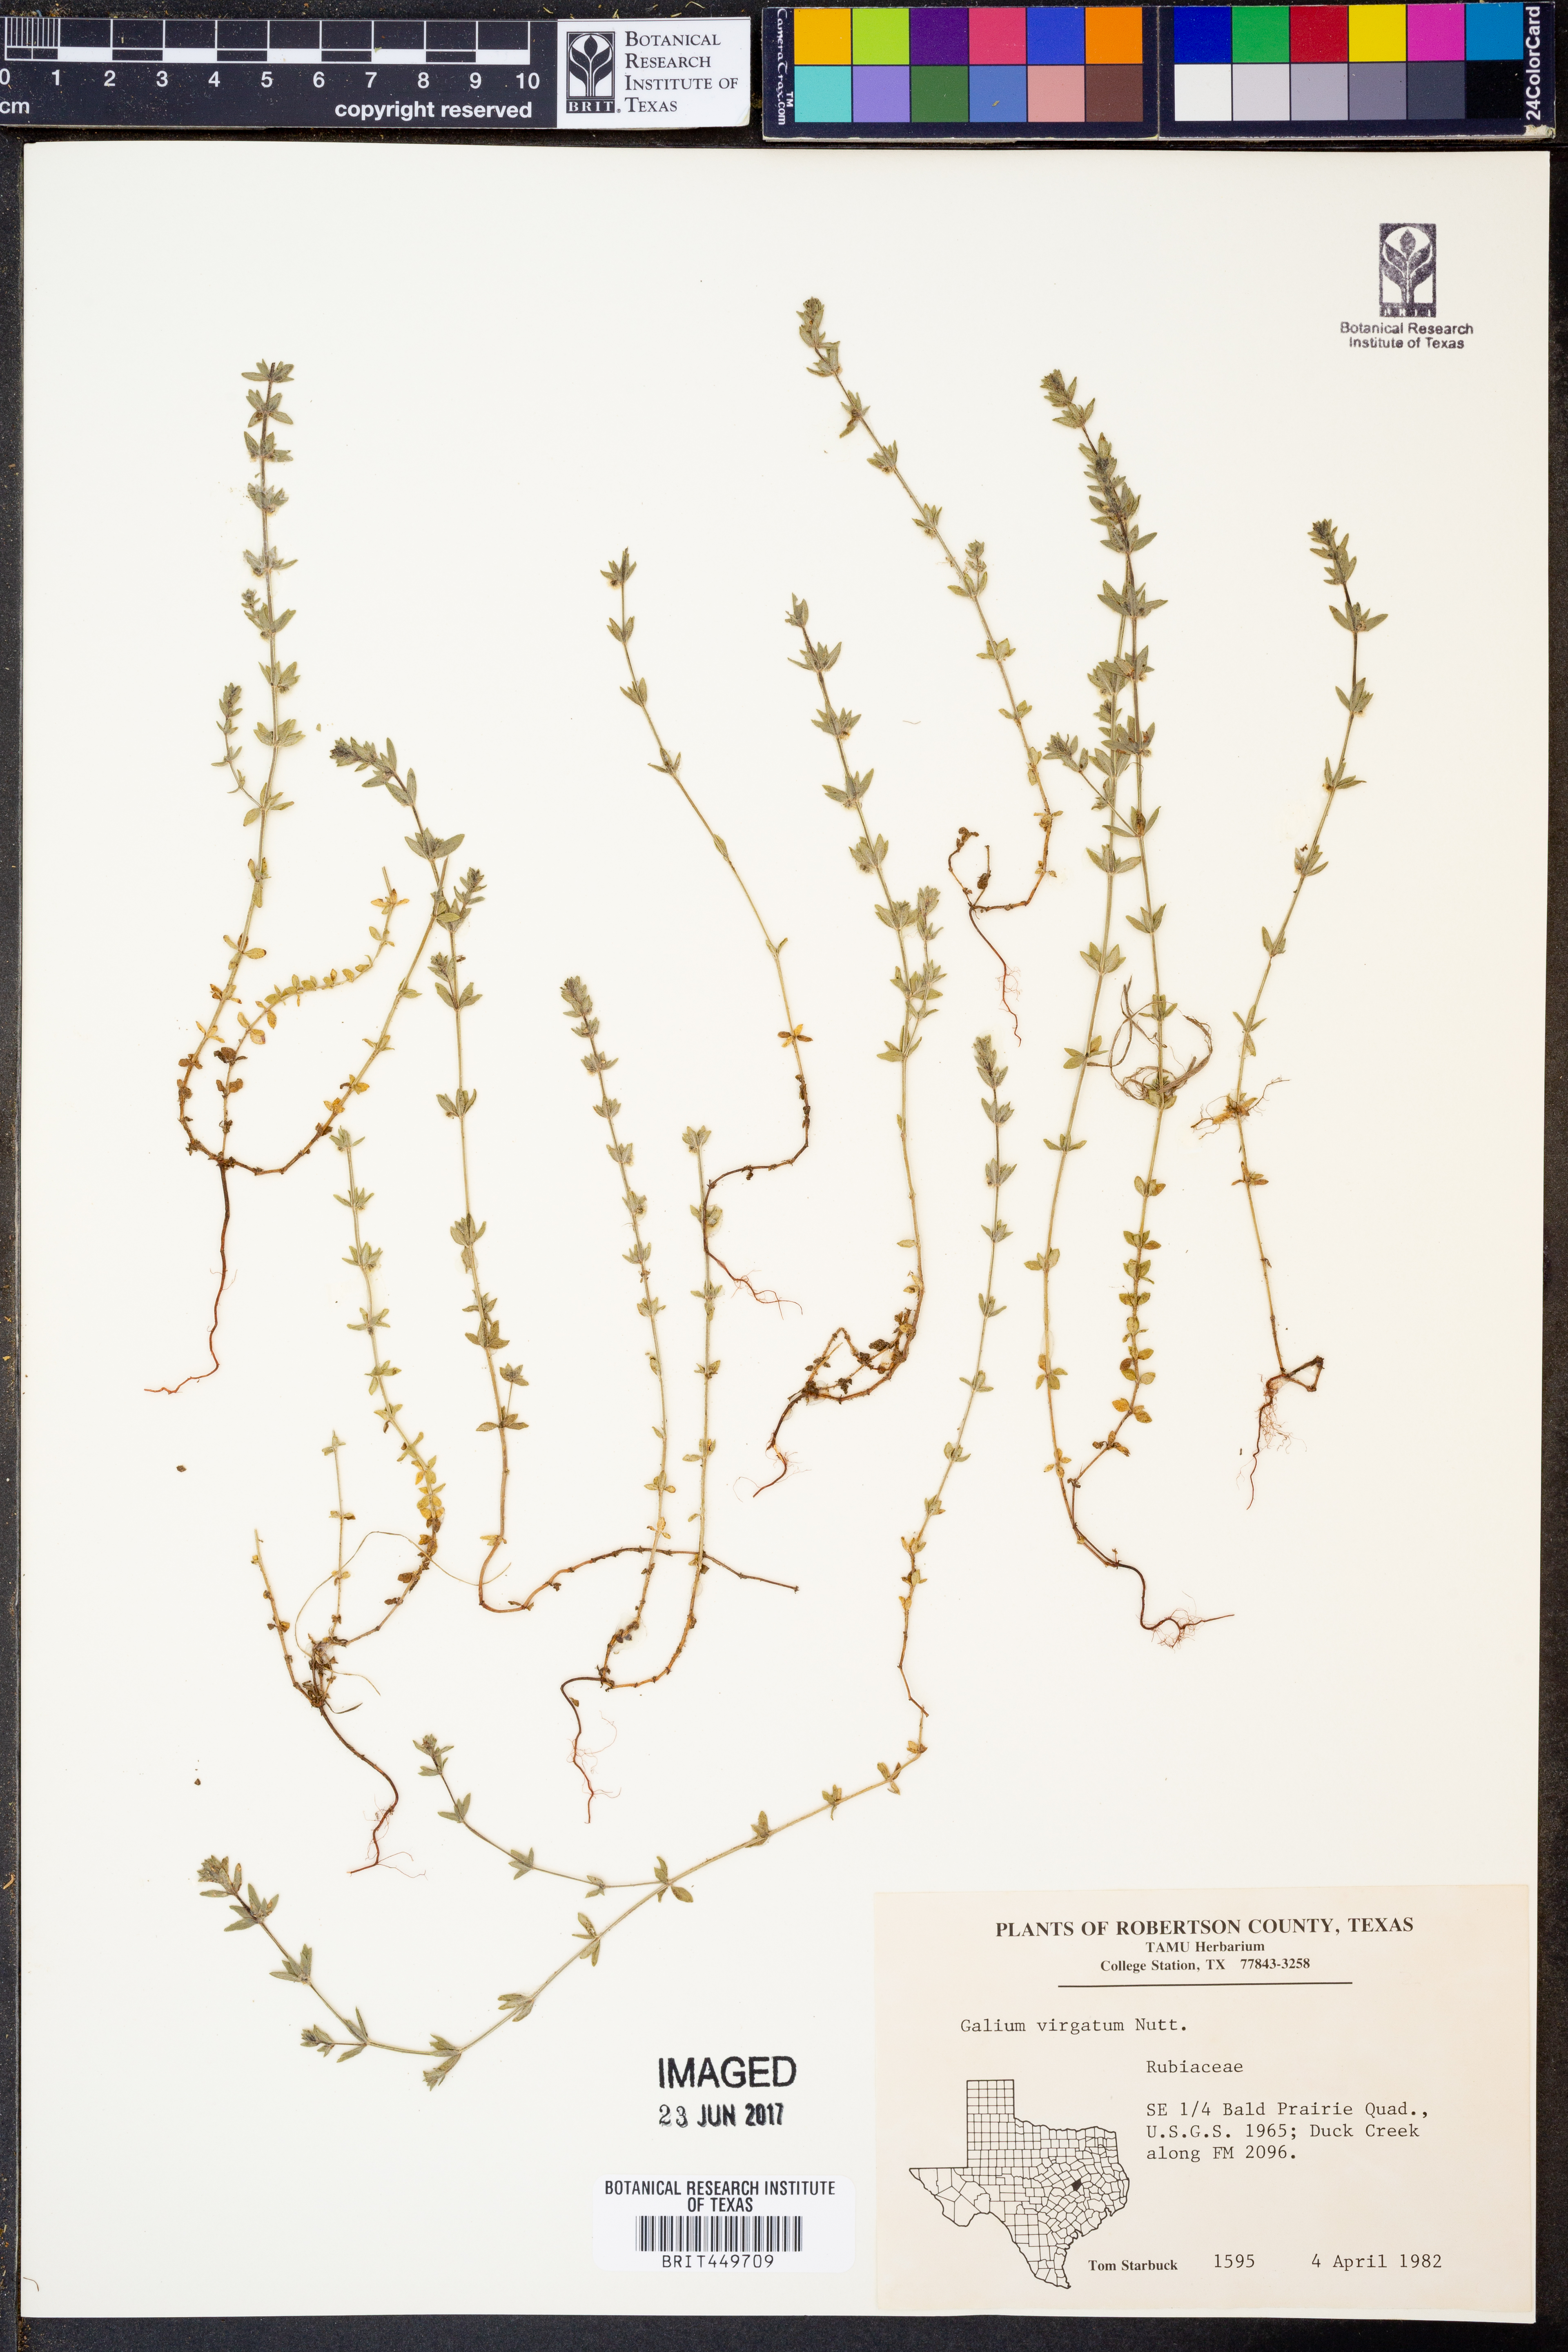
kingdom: Plantae
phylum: Tracheophyta
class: Magnoliopsida
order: Gentianales
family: Rubiaceae
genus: Galium
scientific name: Galium virgatum
